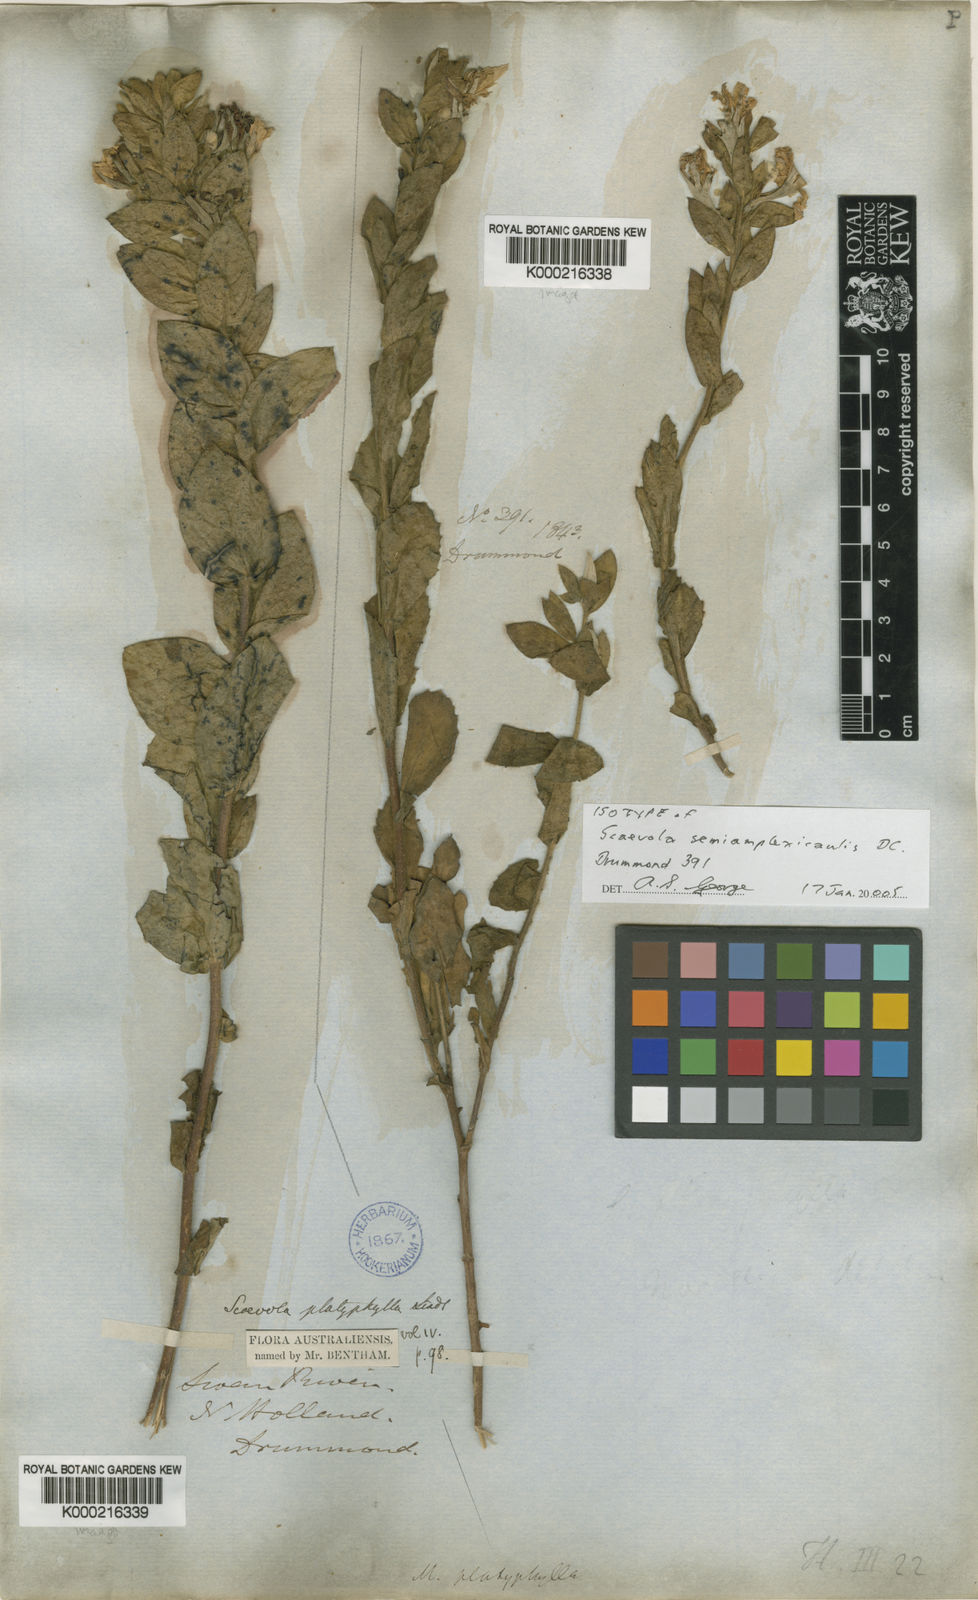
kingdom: Plantae
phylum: Tracheophyta
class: Magnoliopsida
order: Asterales
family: Goodeniaceae
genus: Scaevola
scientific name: Scaevola platyphylla
